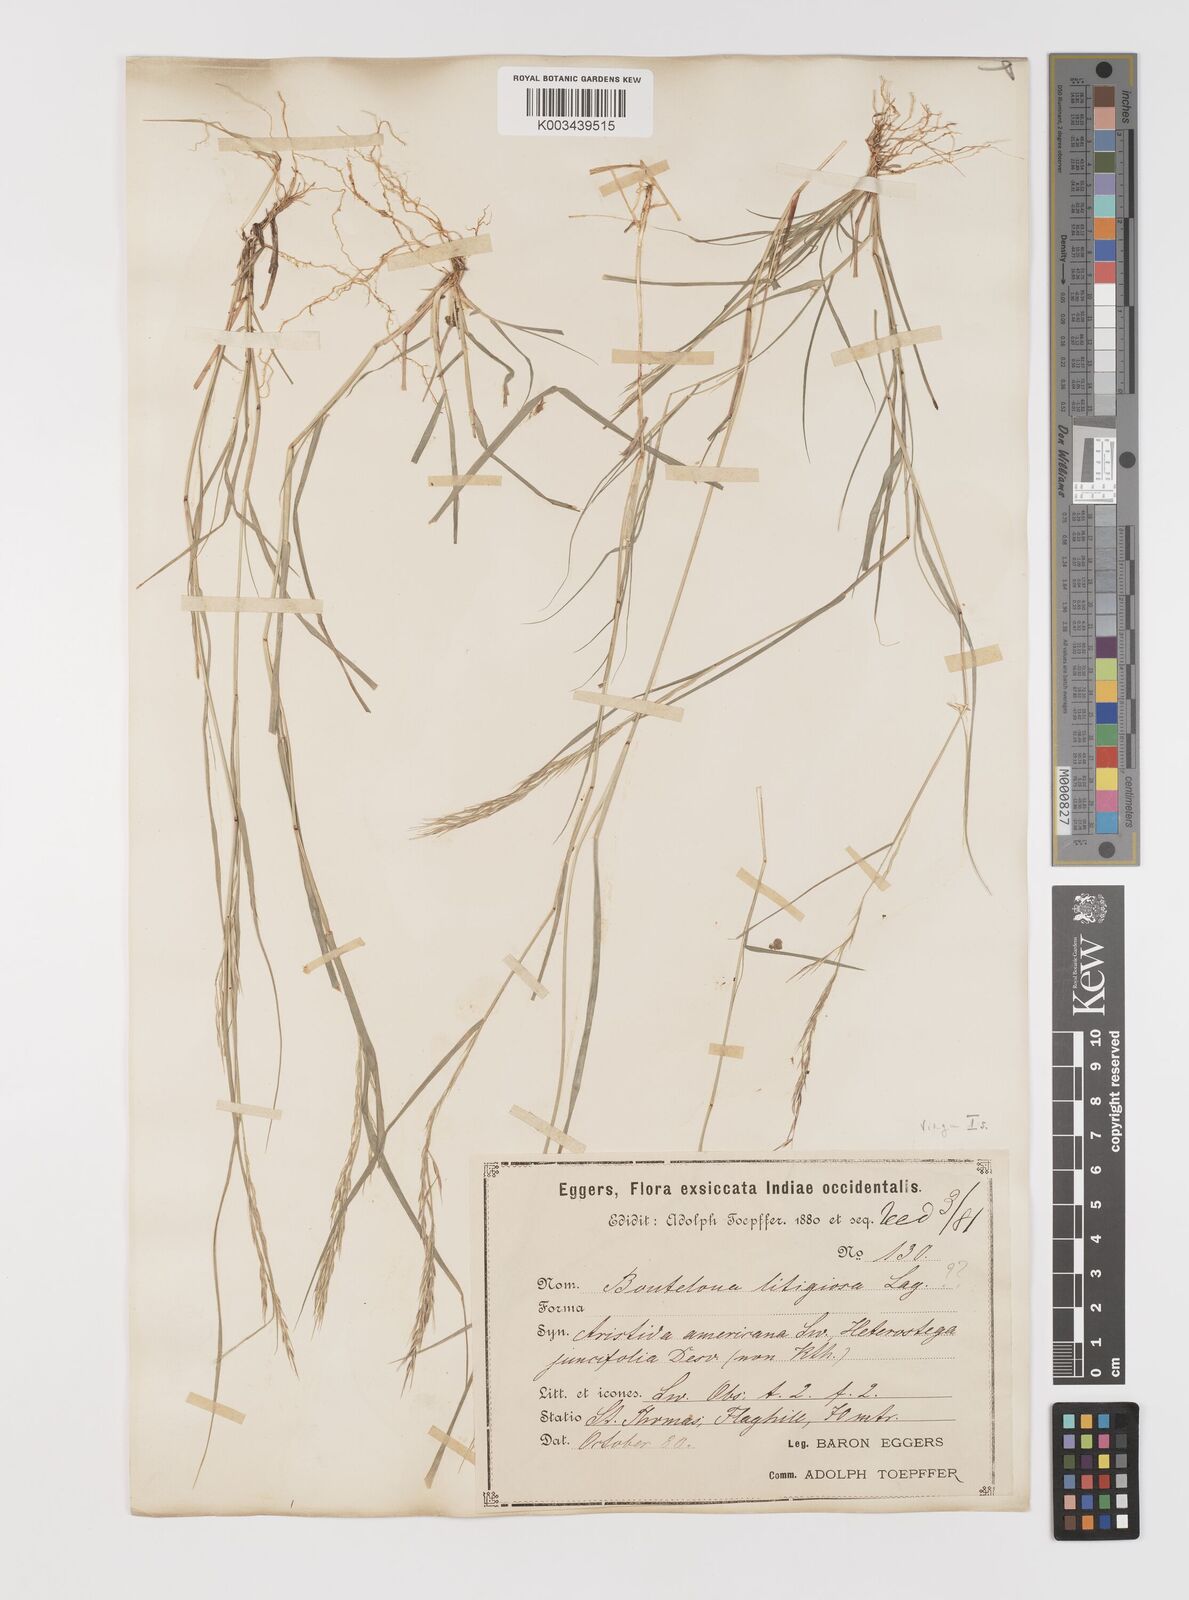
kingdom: Plantae
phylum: Tracheophyta
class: Liliopsida
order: Poales
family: Poaceae
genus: Bouteloua
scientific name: Bouteloua americana
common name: Mule grass
